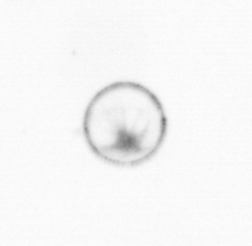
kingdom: Chromista
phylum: Myzozoa
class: Dinophyceae
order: Noctilucales
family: Noctilucaceae
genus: Noctiluca
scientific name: Noctiluca scintillans
